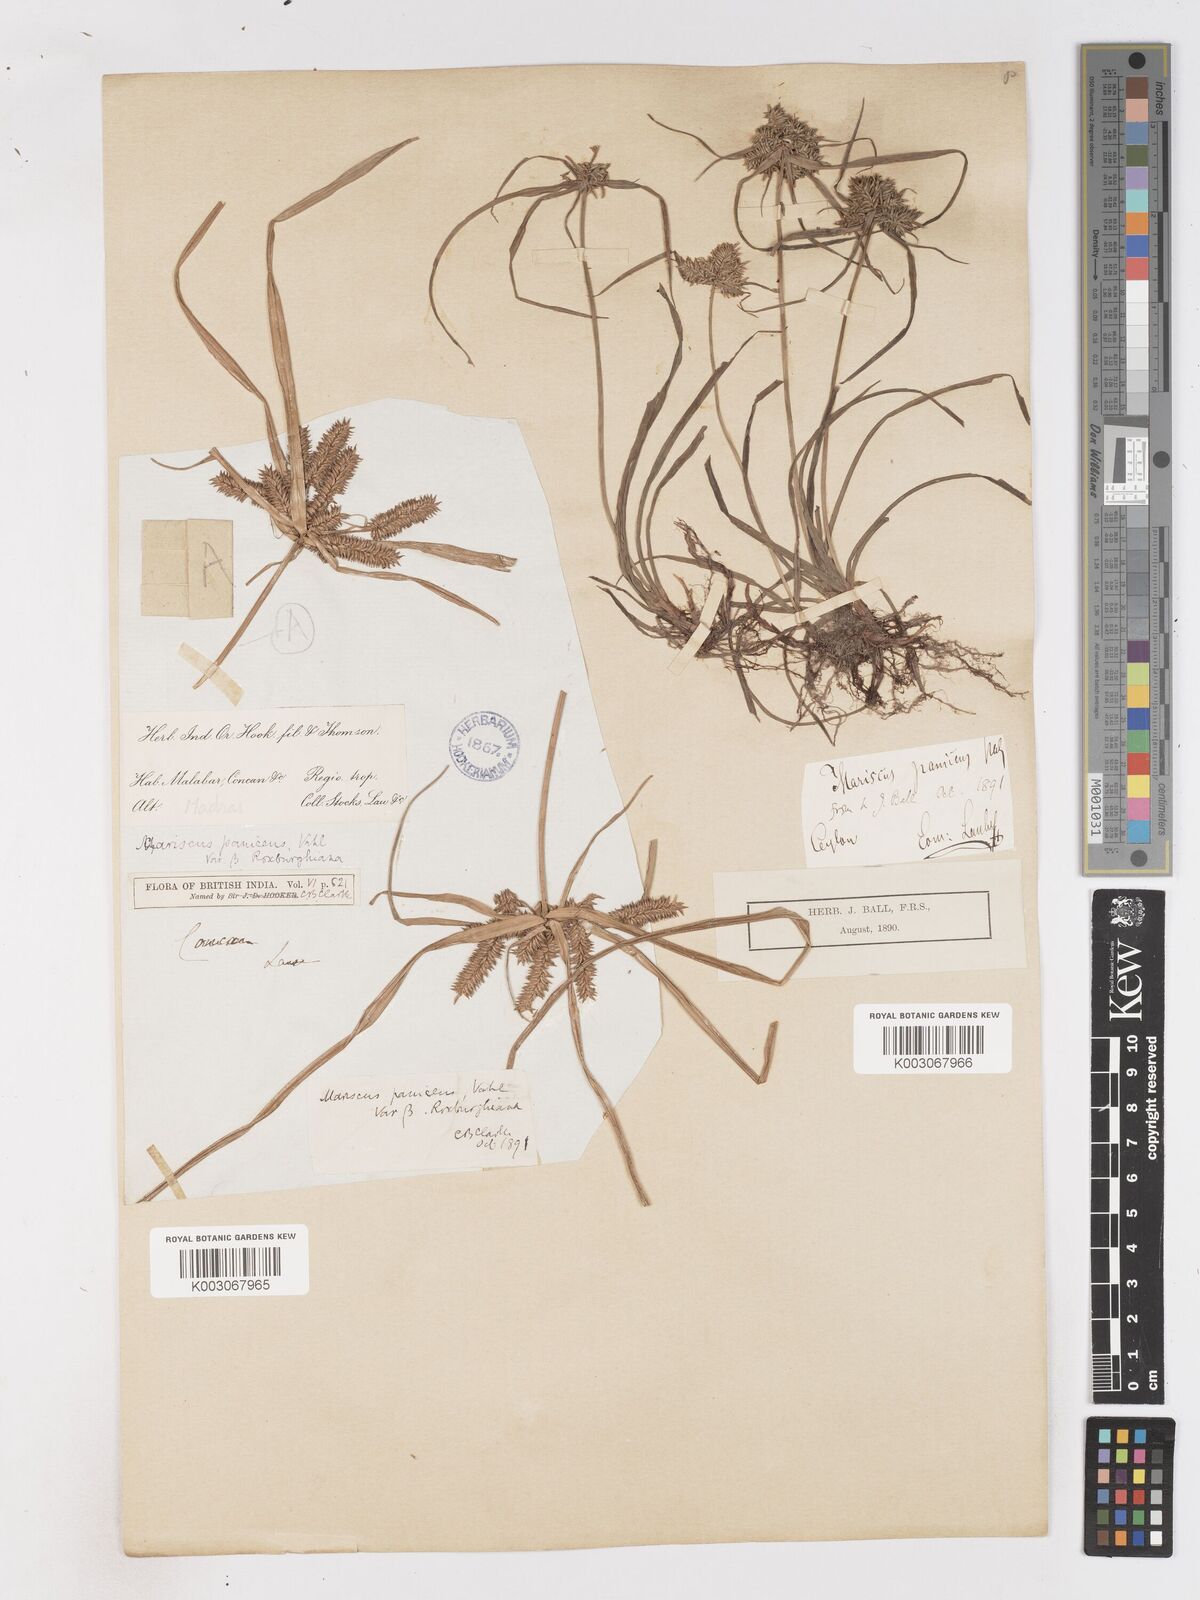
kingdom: Plantae
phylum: Tracheophyta
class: Liliopsida
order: Poales
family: Cyperaceae
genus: Cyperus
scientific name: Cyperus paniceus
